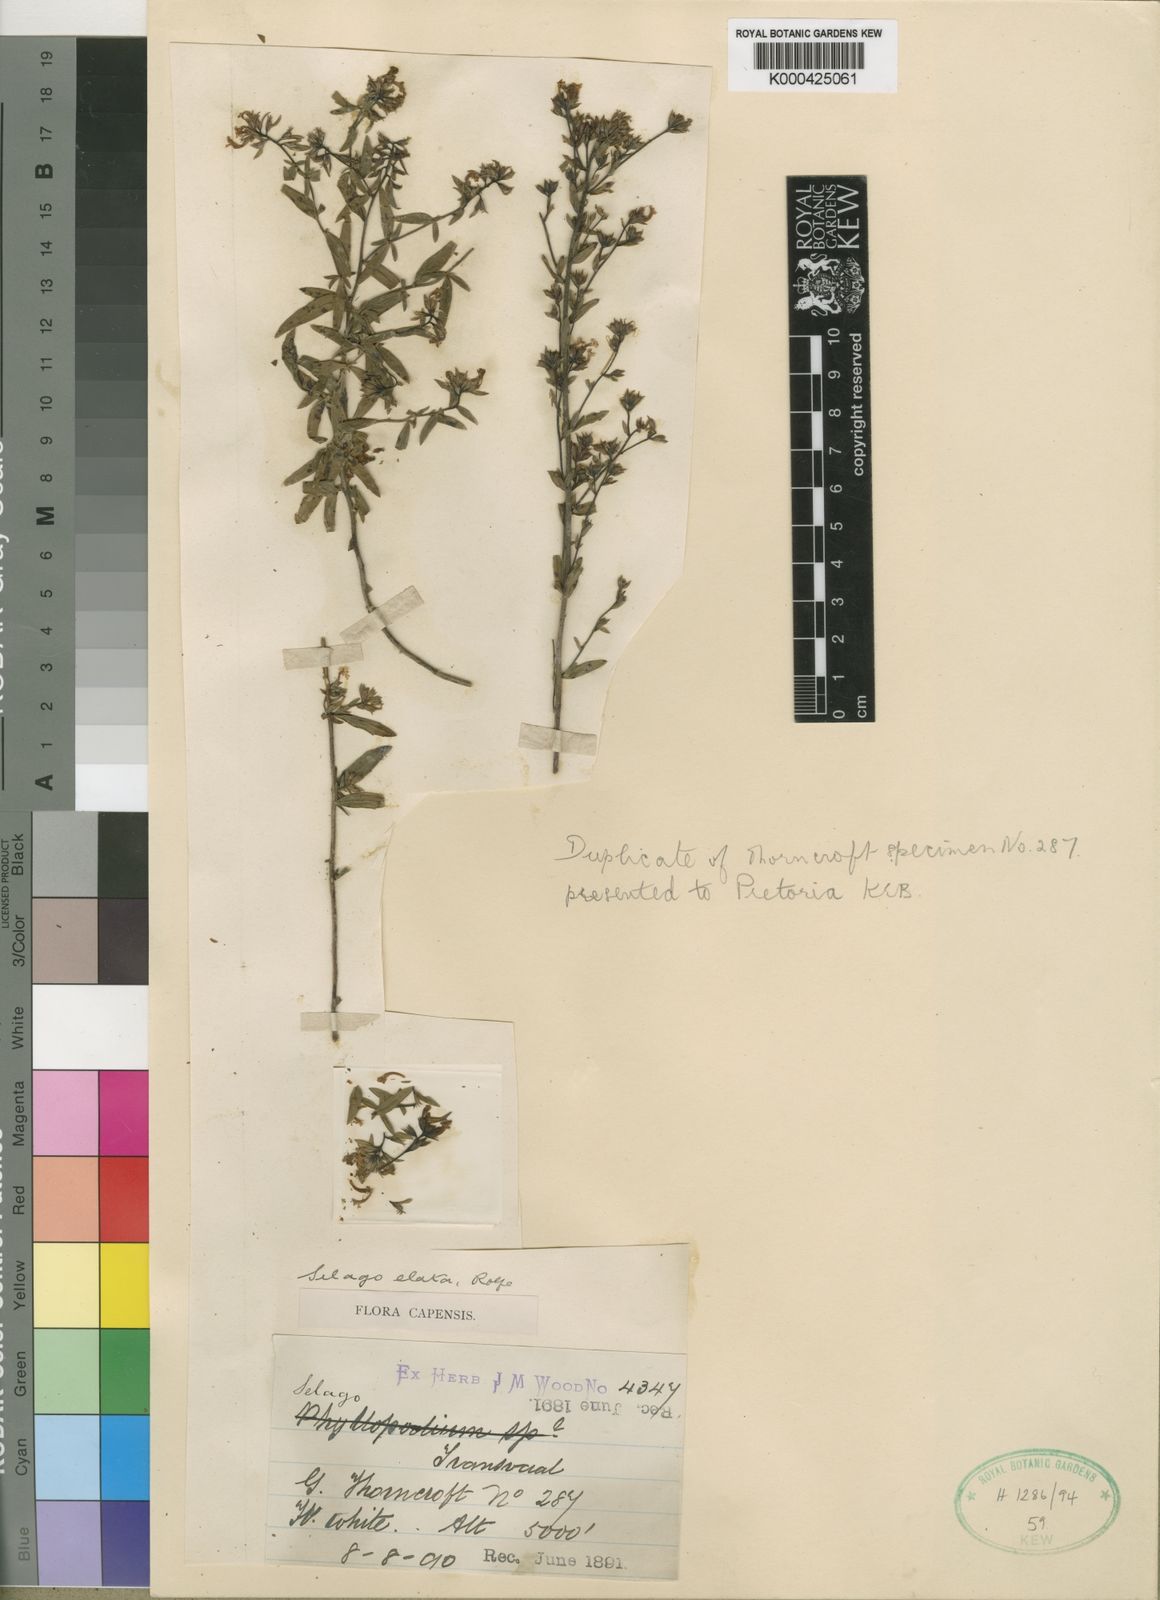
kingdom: Plantae
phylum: Tracheophyta
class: Magnoliopsida
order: Lamiales
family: Scrophulariaceae
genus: Selago
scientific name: Selago procera
